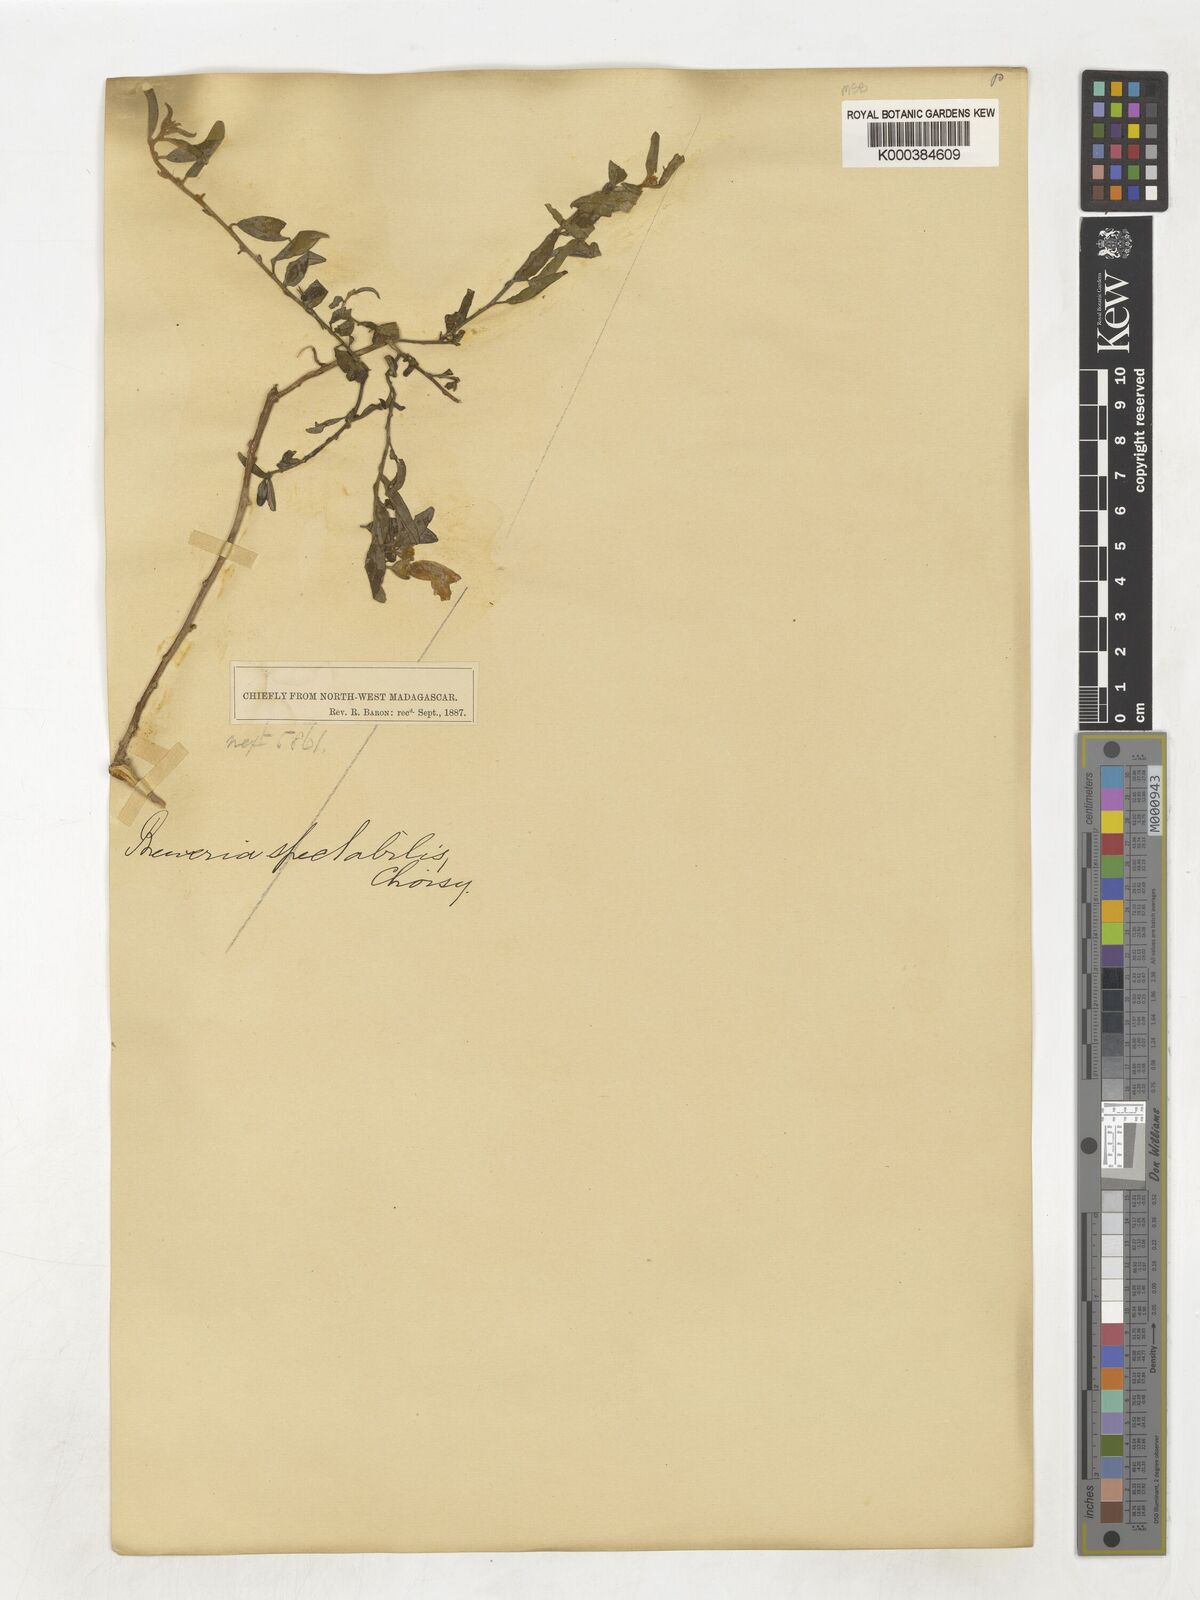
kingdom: Plantae
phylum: Tracheophyta
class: Magnoliopsida
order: Solanales
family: Convolvulaceae
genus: Bonamia
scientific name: Bonamia spectabilis
